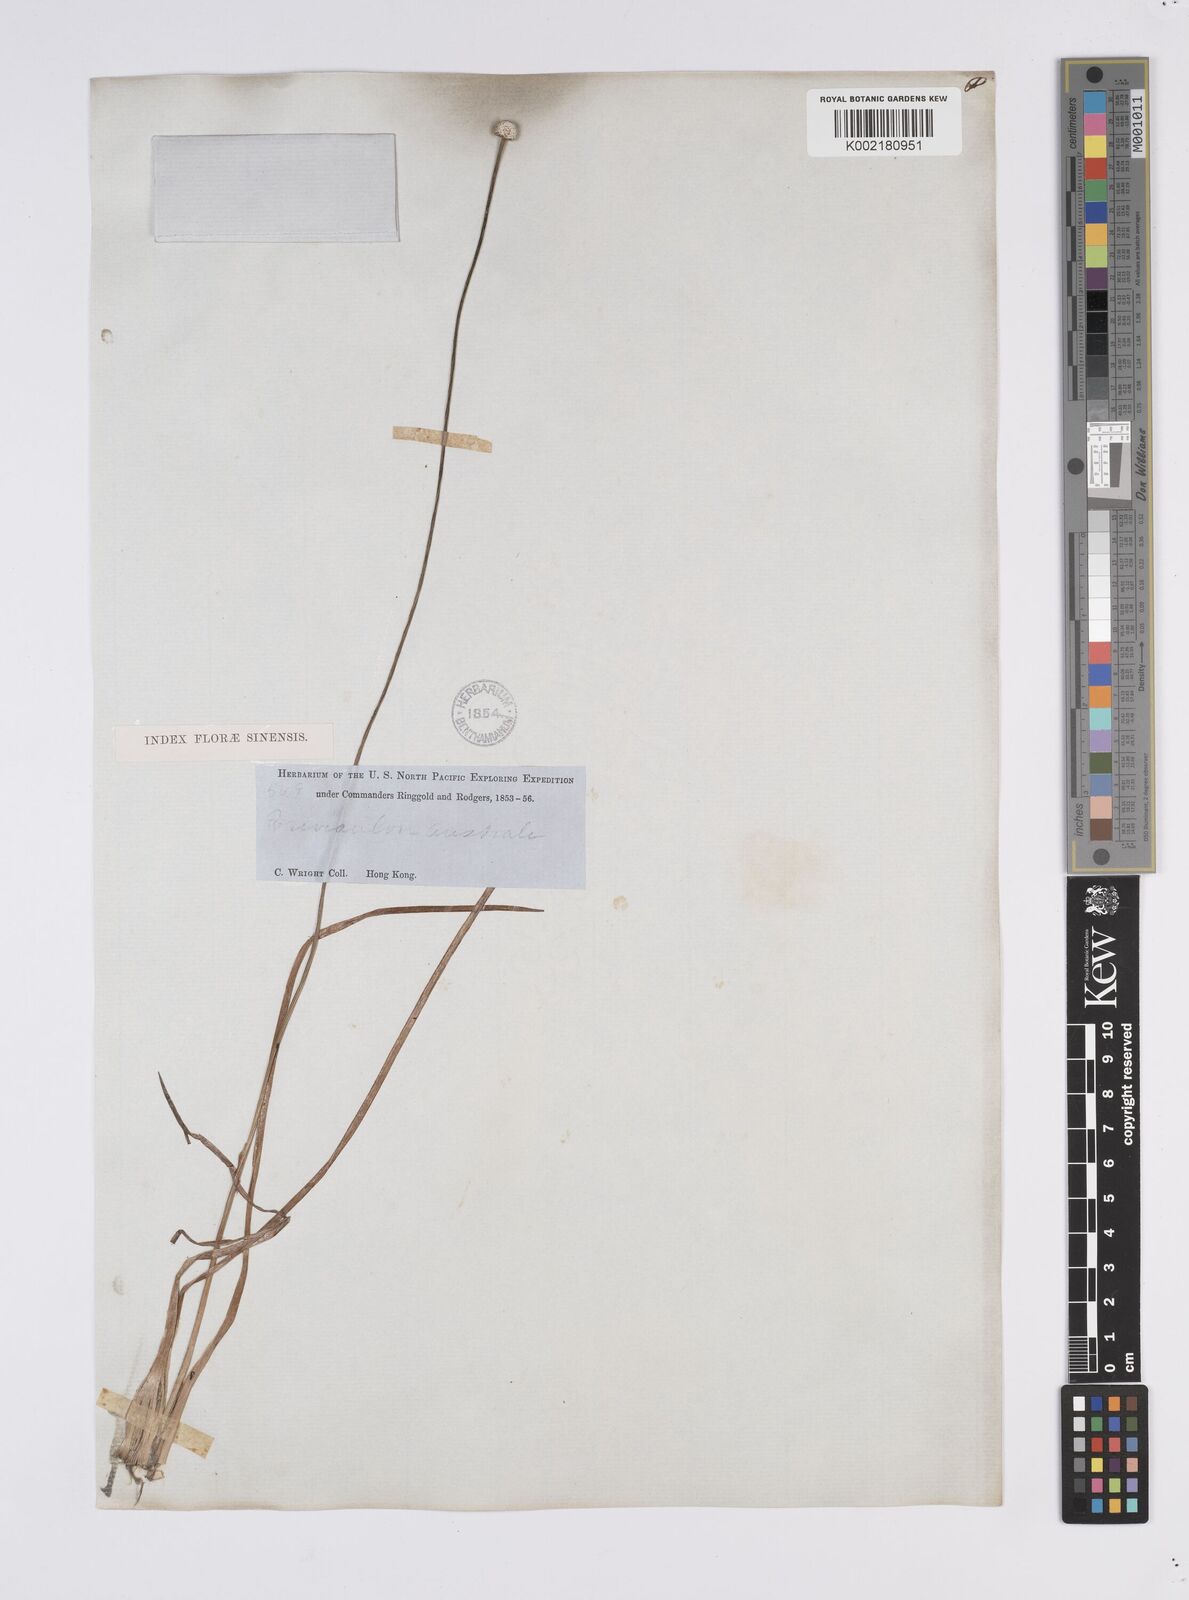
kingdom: Plantae
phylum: Tracheophyta
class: Liliopsida
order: Poales
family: Eriocaulaceae
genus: Eriocaulon
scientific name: Eriocaulon australe
